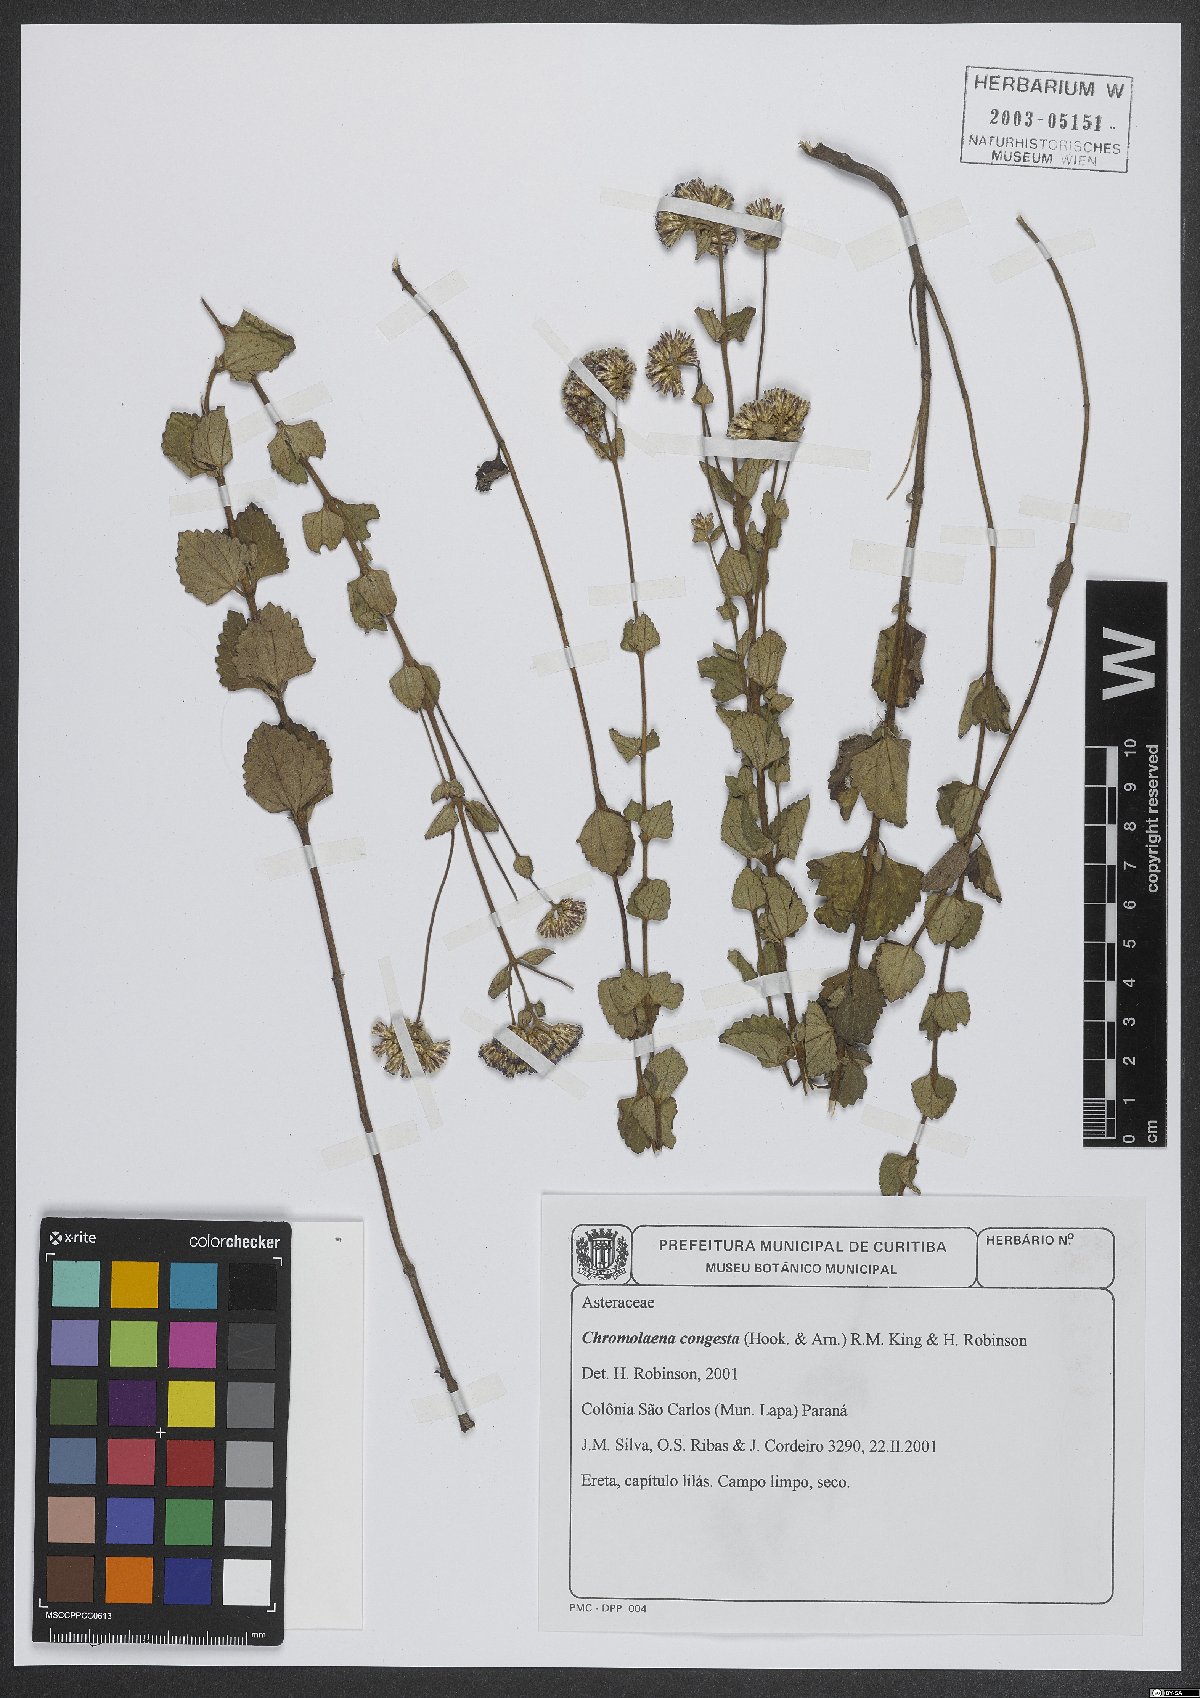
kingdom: Plantae
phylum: Tracheophyta
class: Magnoliopsida
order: Asterales
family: Asteraceae
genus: Chromolaena
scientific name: Chromolaena congesta
